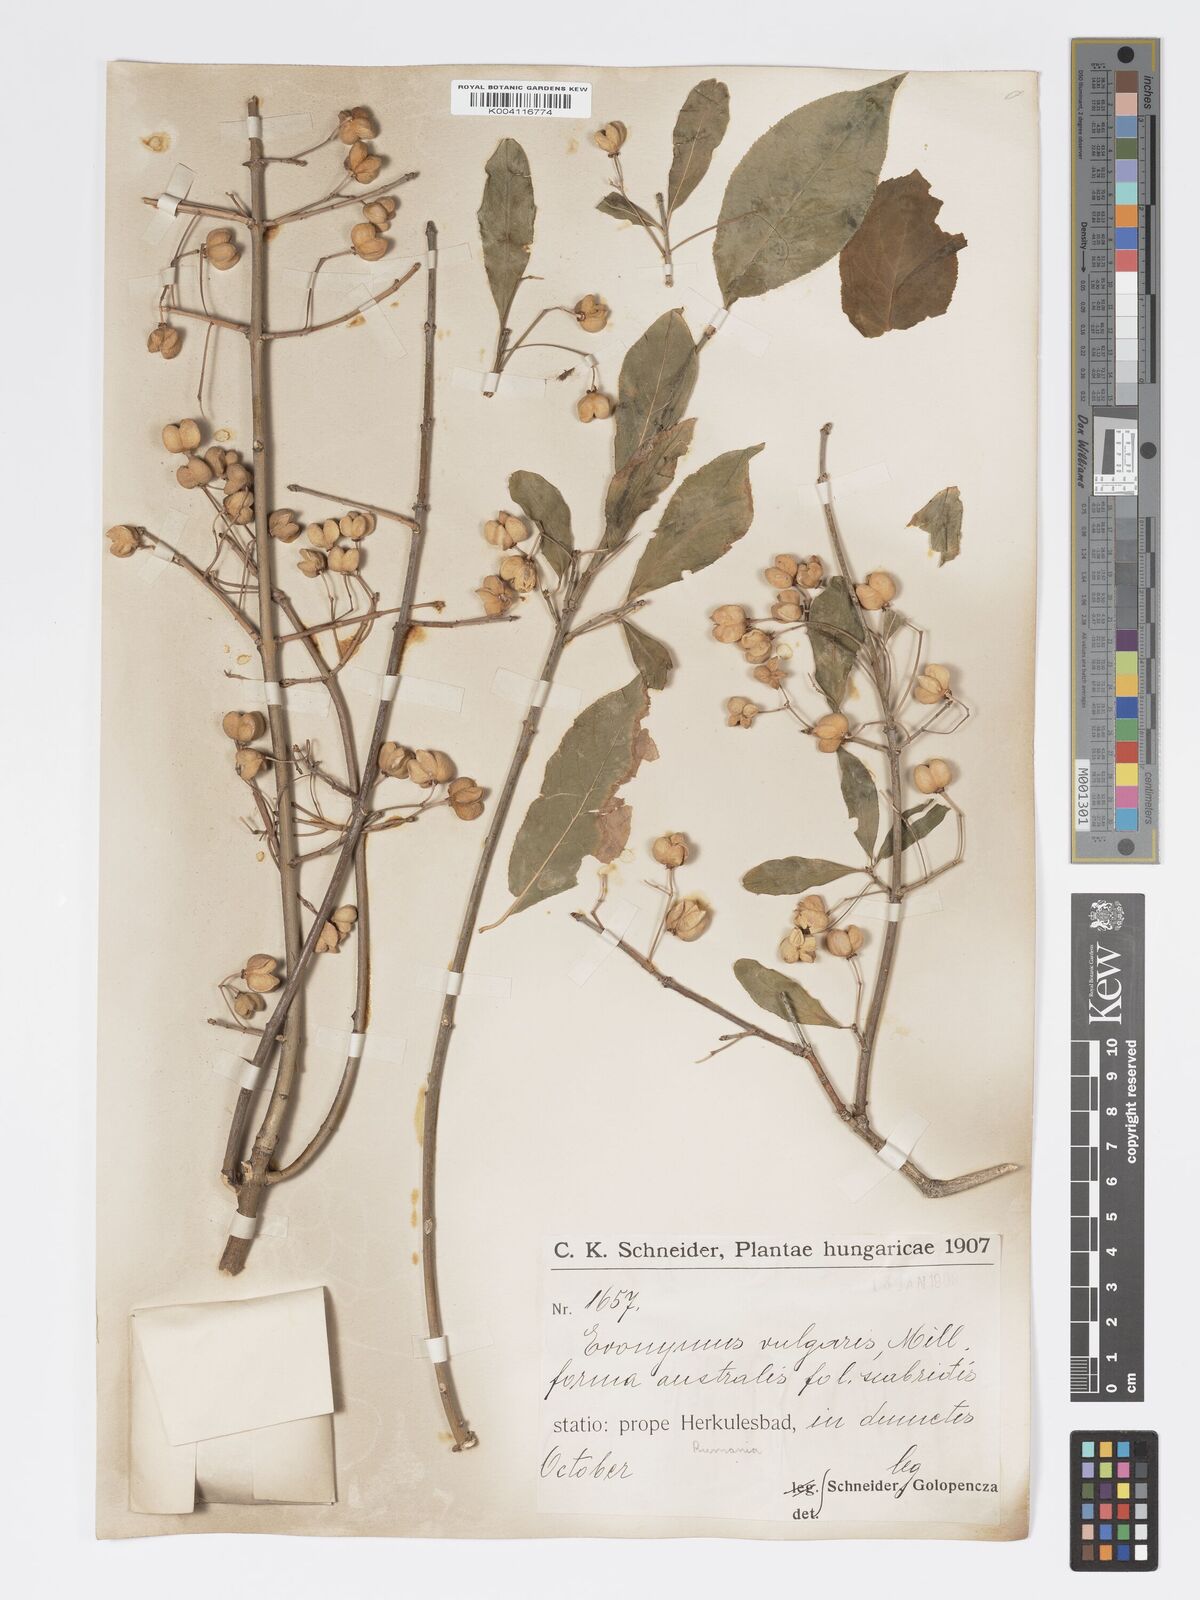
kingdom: Plantae
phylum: Tracheophyta
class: Magnoliopsida
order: Celastrales
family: Celastraceae
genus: Euonymus
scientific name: Euonymus europaeus
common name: Spindle
